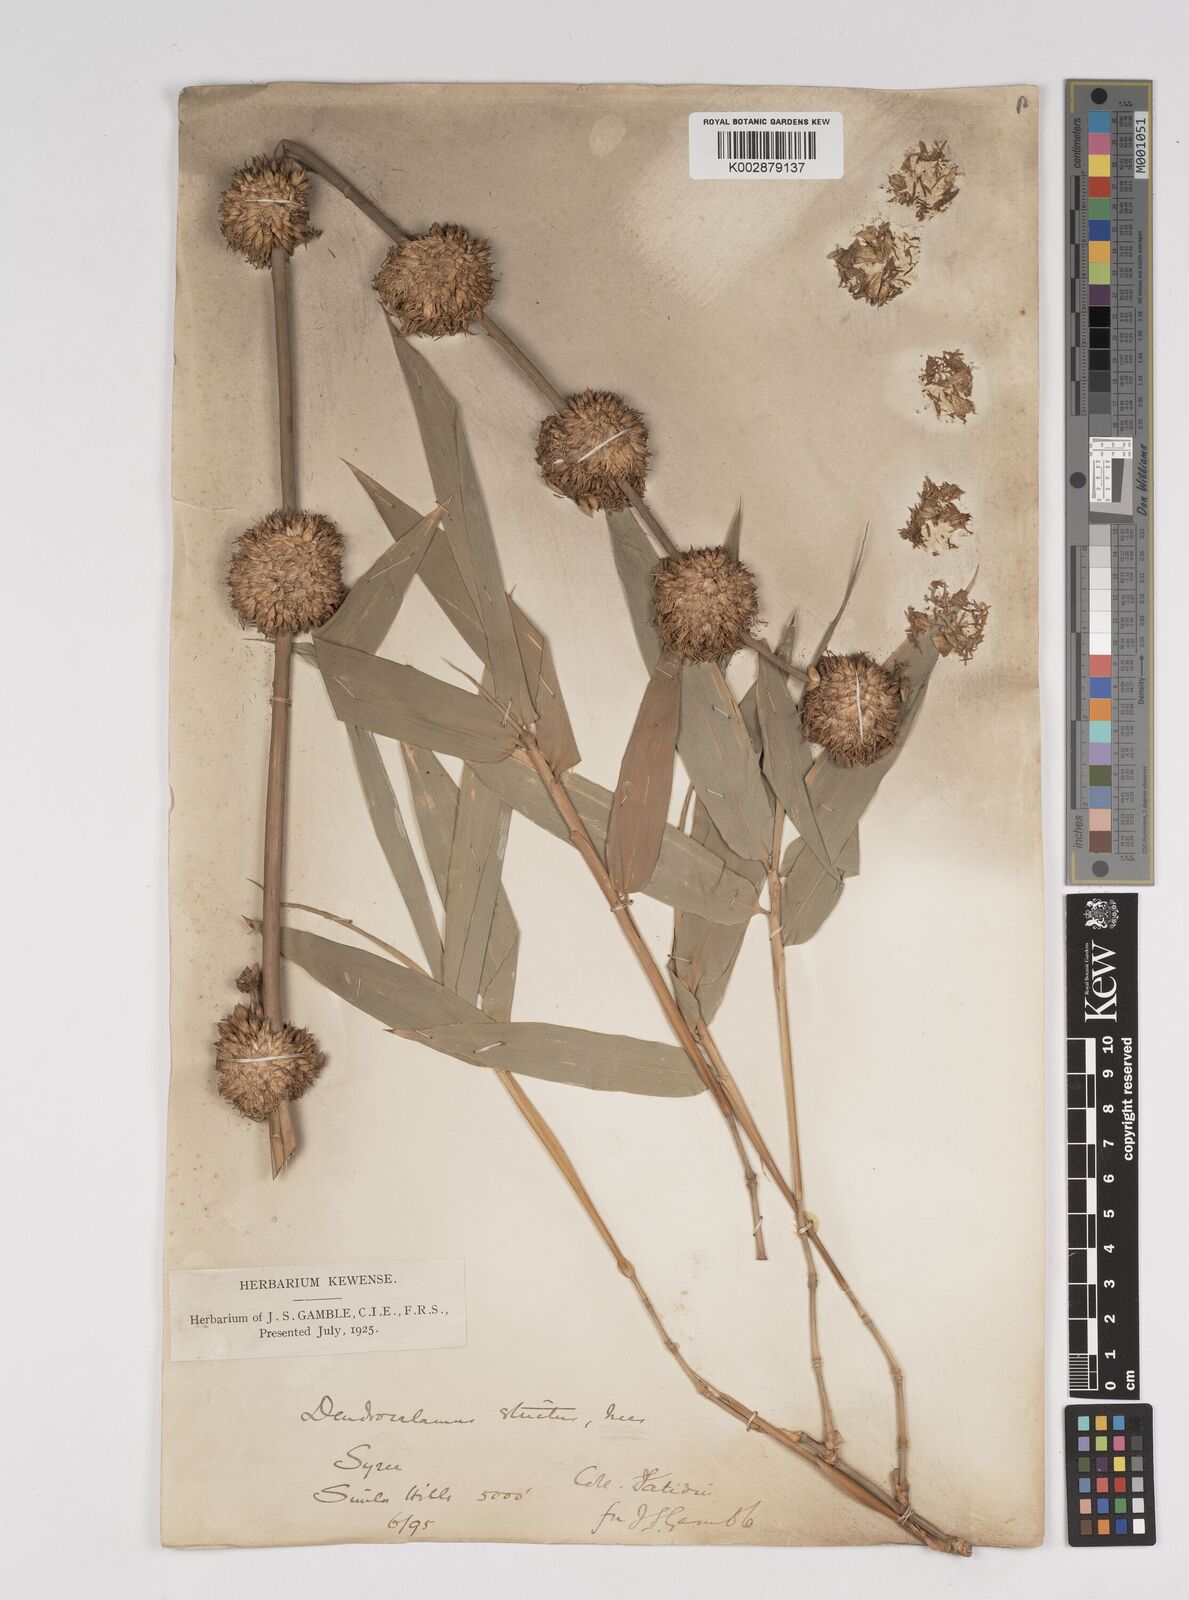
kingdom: Plantae
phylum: Tracheophyta
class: Liliopsida
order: Poales
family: Poaceae
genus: Dendrocalamus
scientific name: Dendrocalamus strictus
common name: Male bamboo
